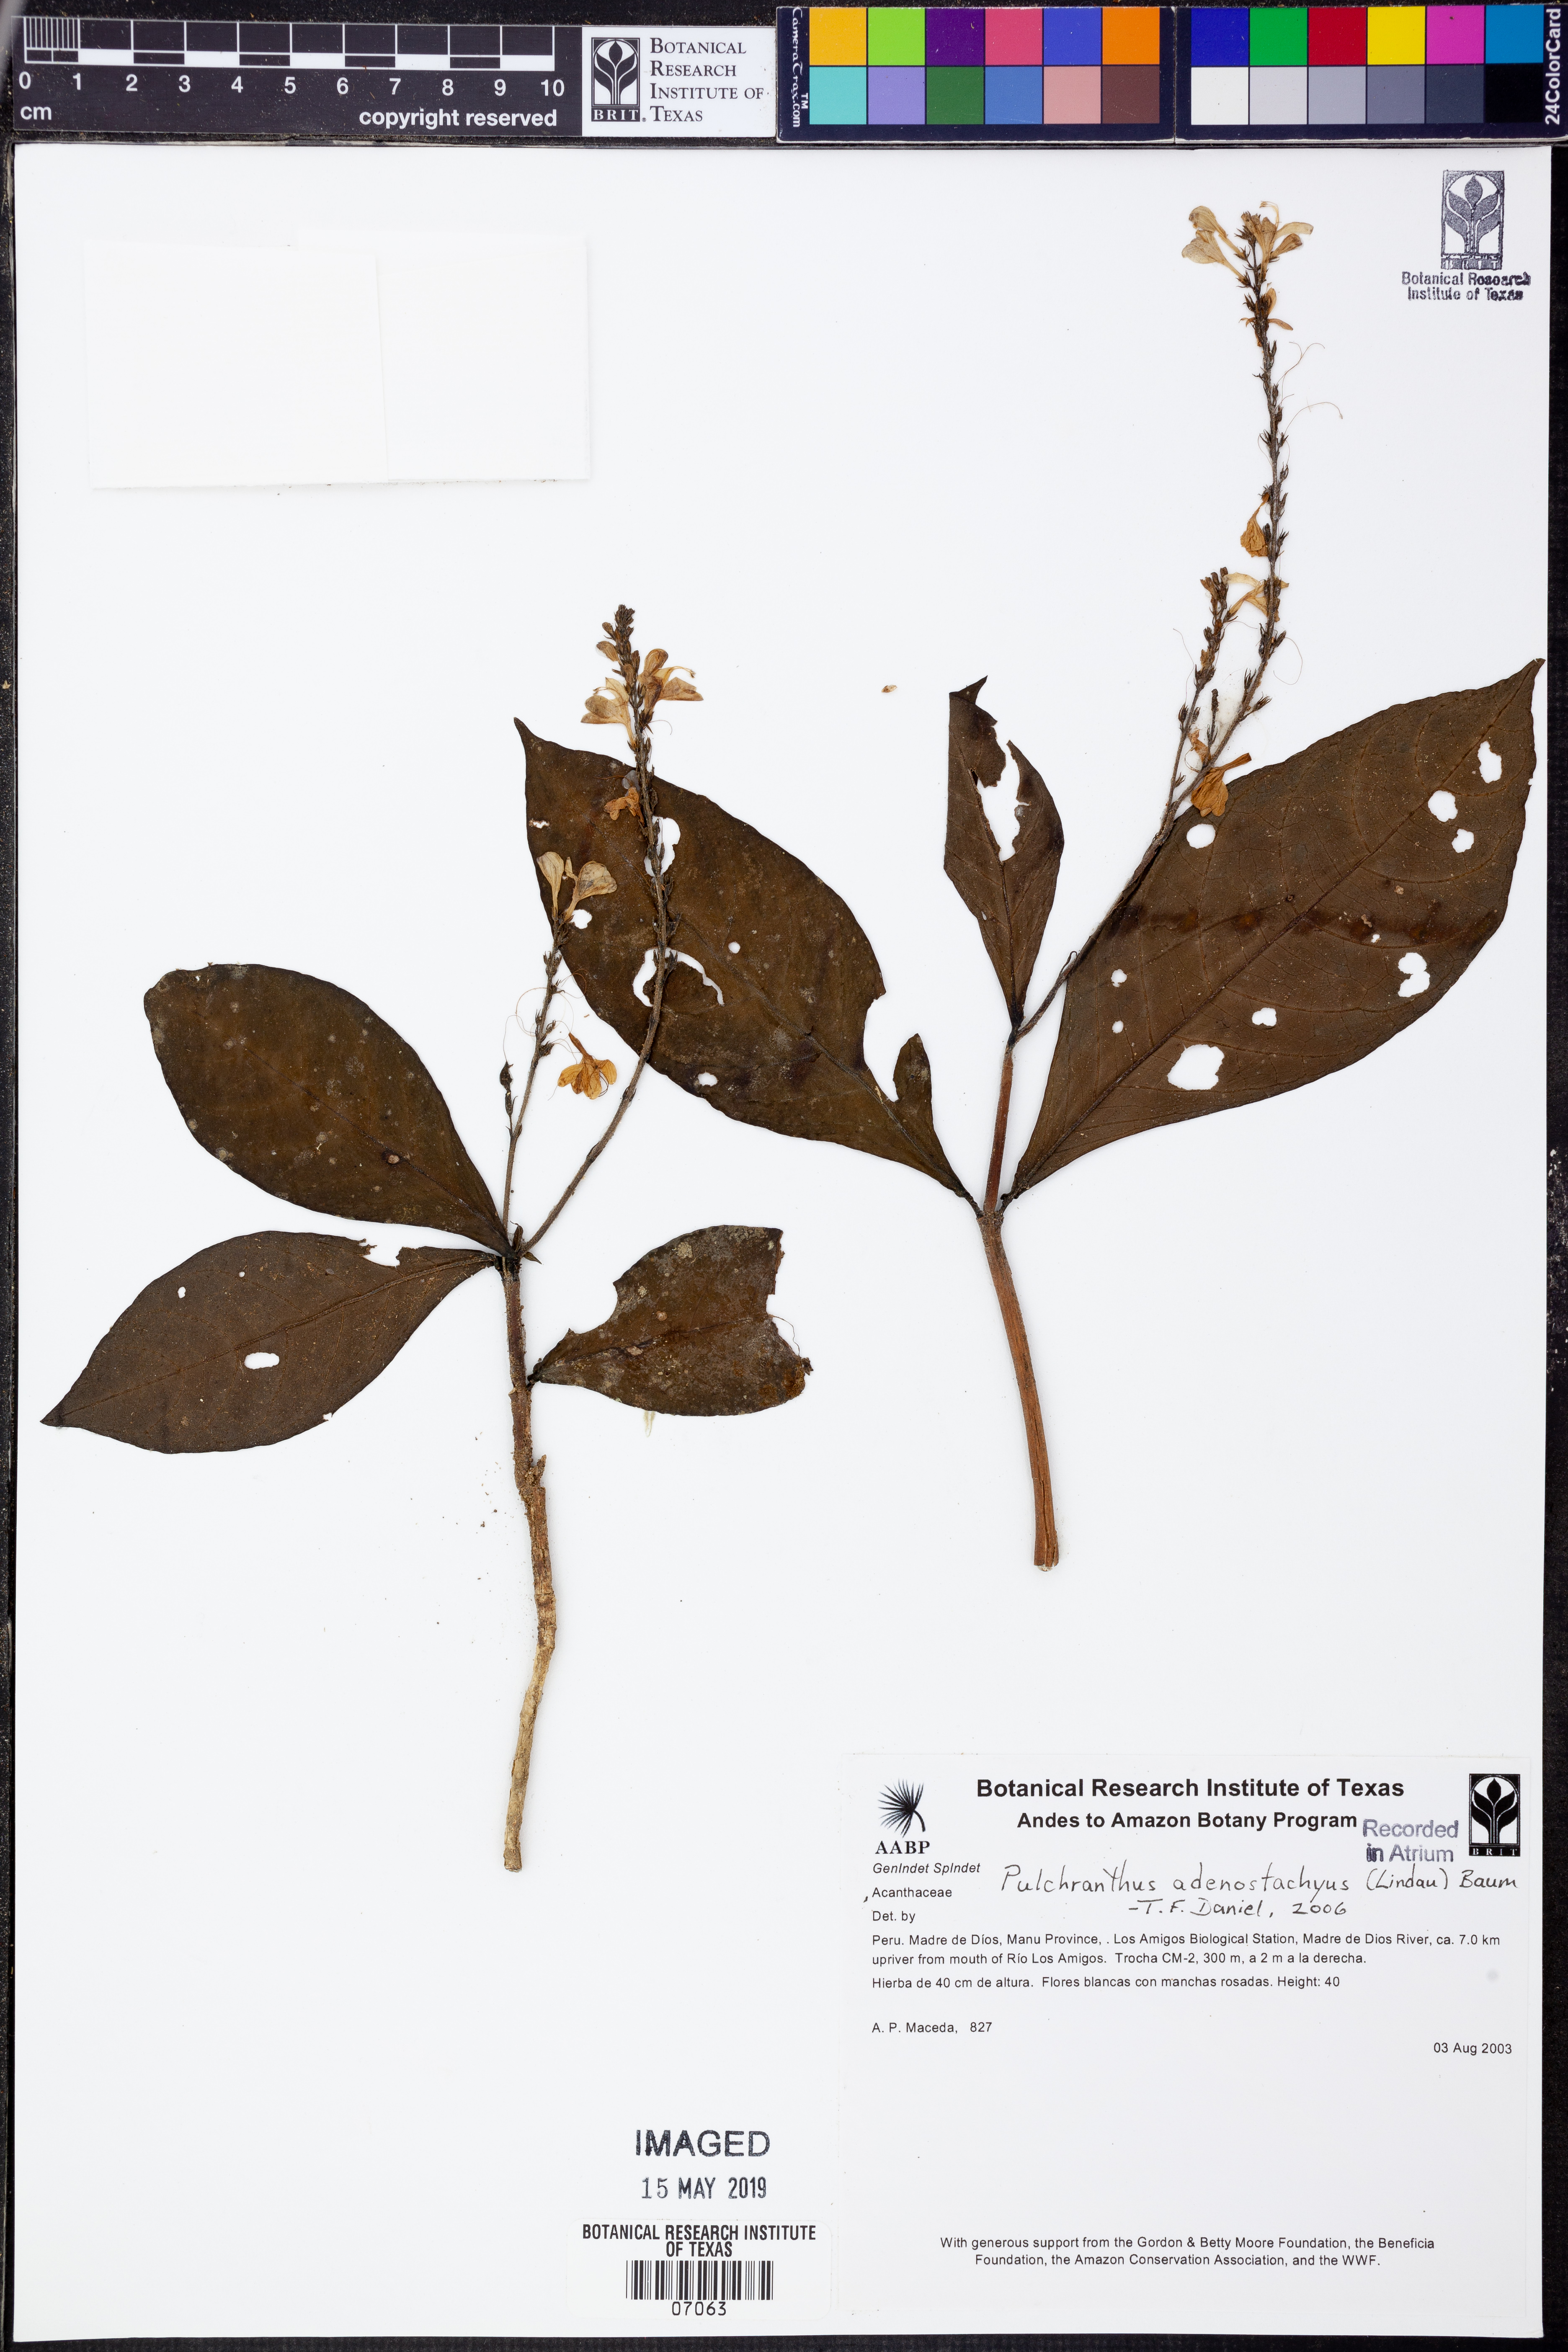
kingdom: Plantae
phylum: Tracheophyta
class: Magnoliopsida
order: Lamiales
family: Acanthaceae
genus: Pulchranthus
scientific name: Pulchranthus
